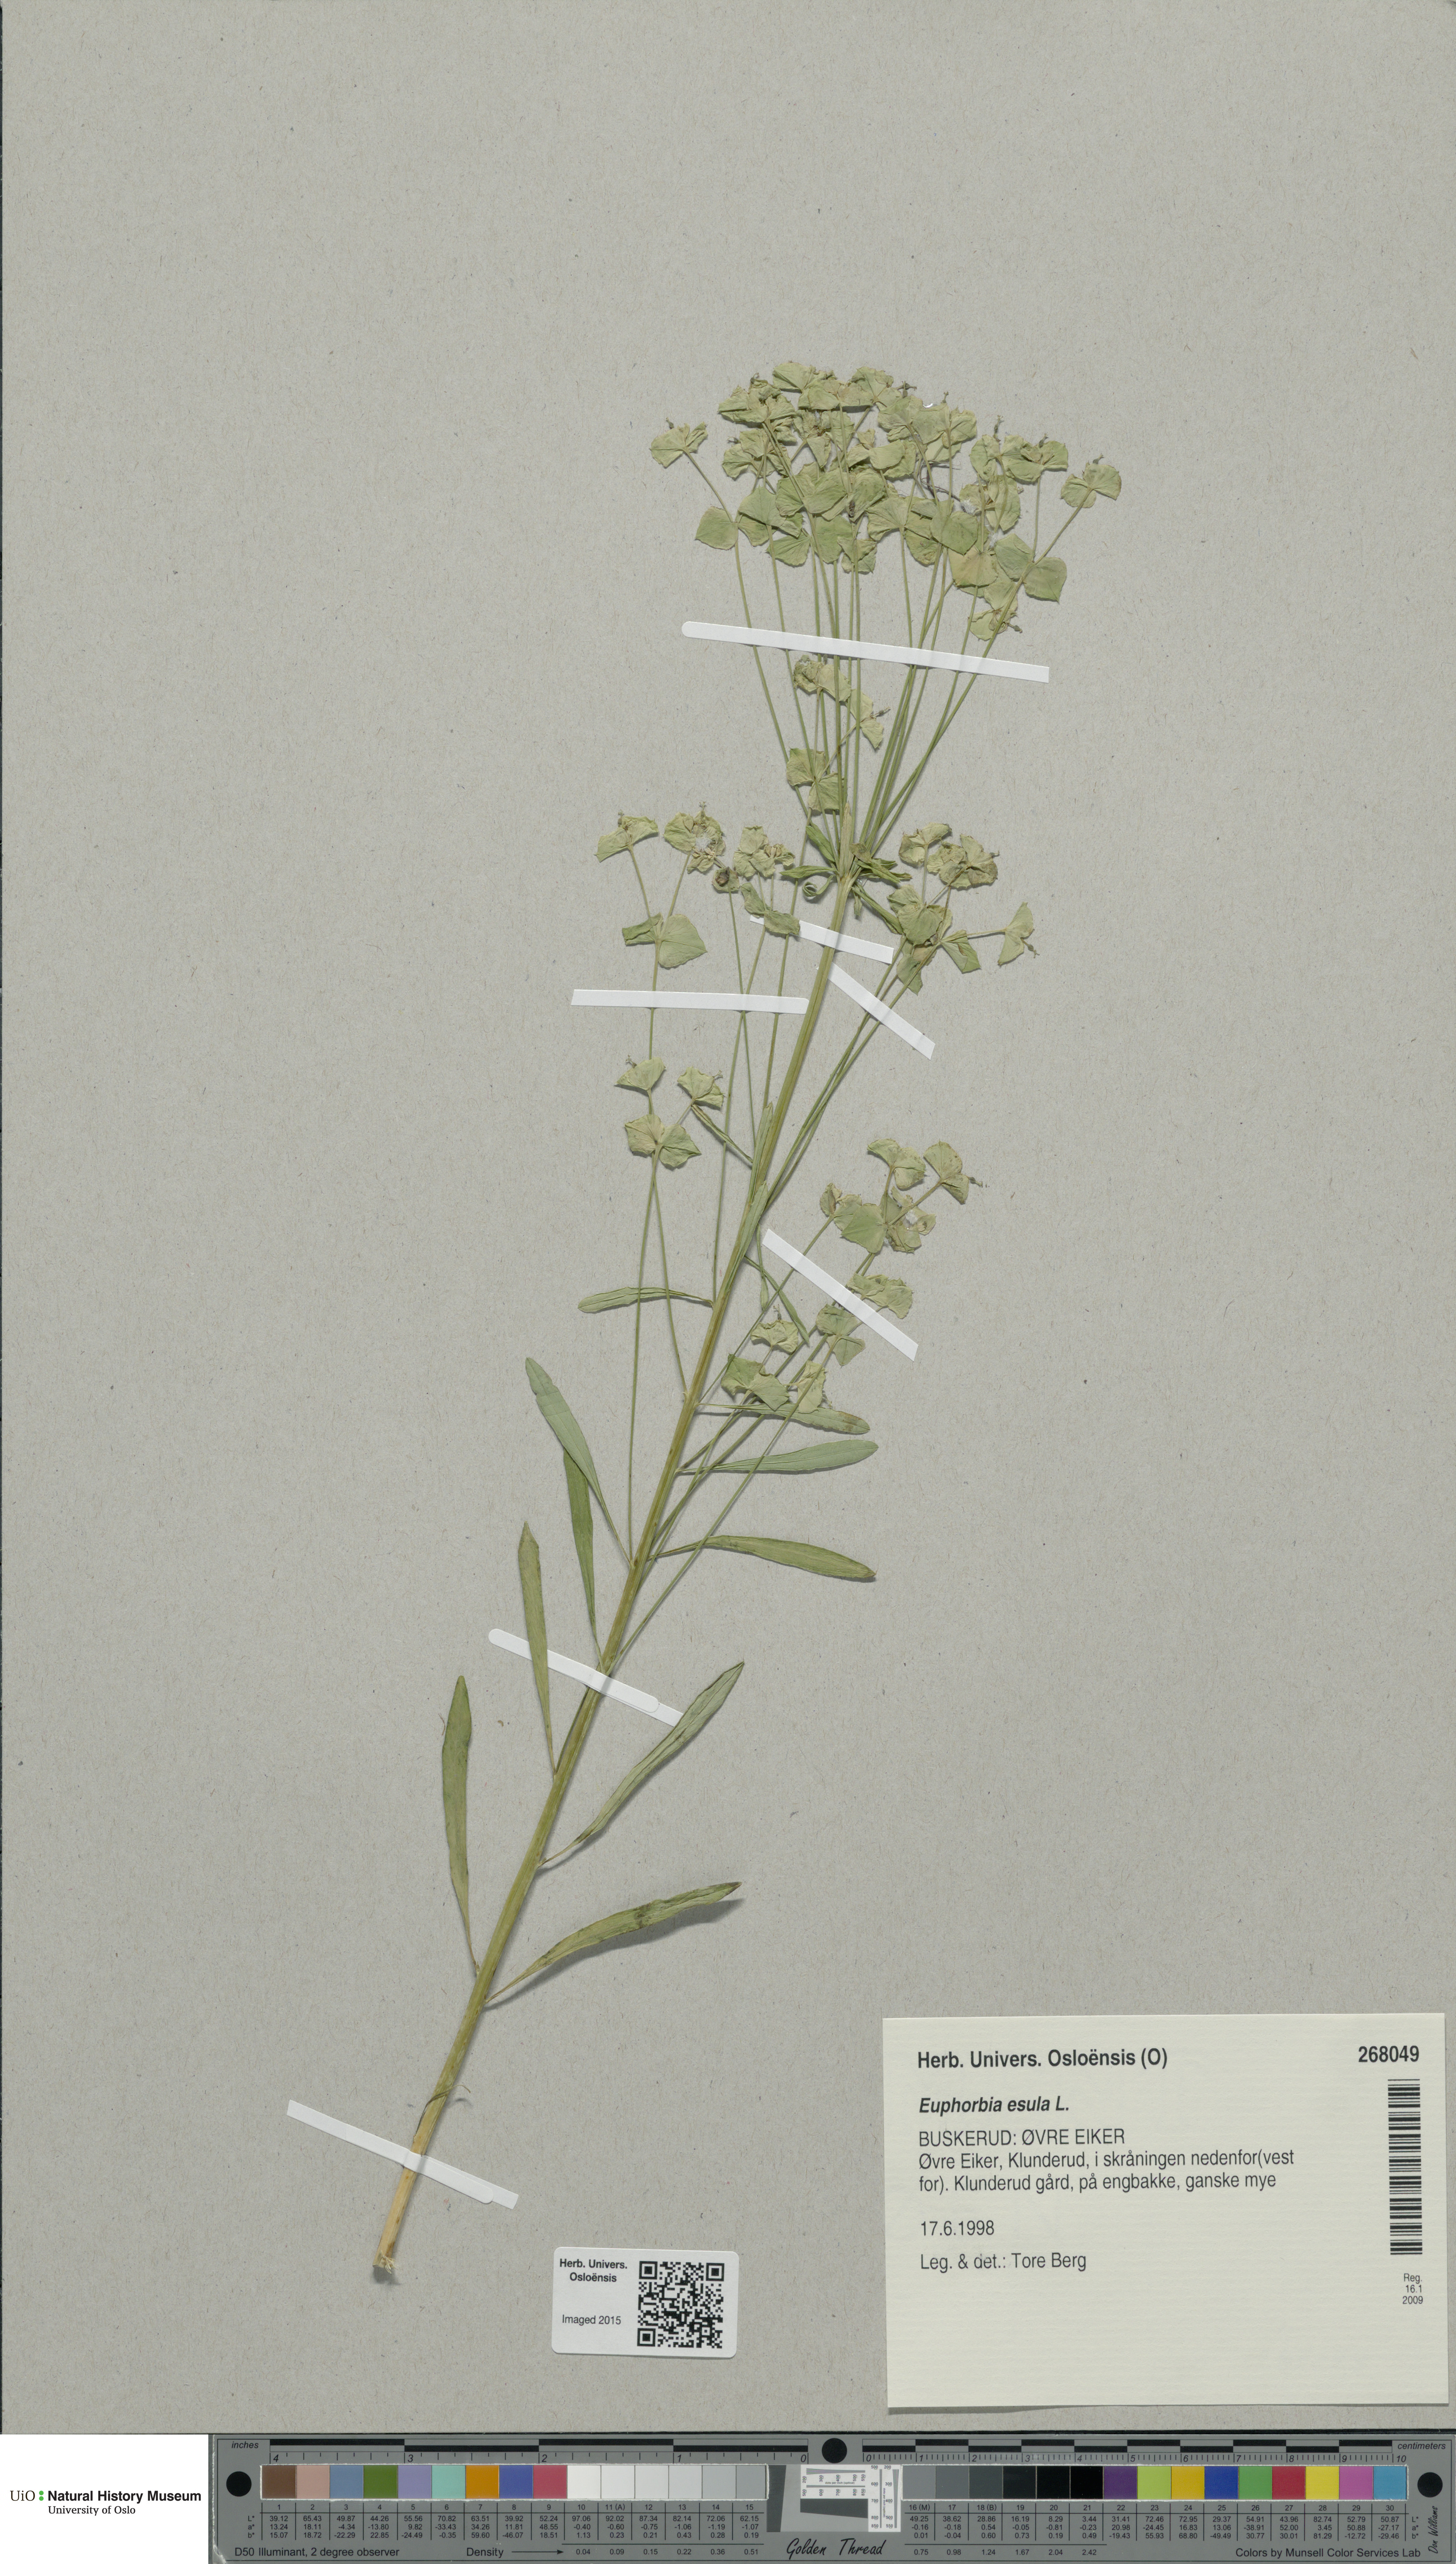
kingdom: Plantae
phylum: Tracheophyta
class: Magnoliopsida
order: Malpighiales
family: Euphorbiaceae
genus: Euphorbia
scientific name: Euphorbia esula
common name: Leafy spurge
